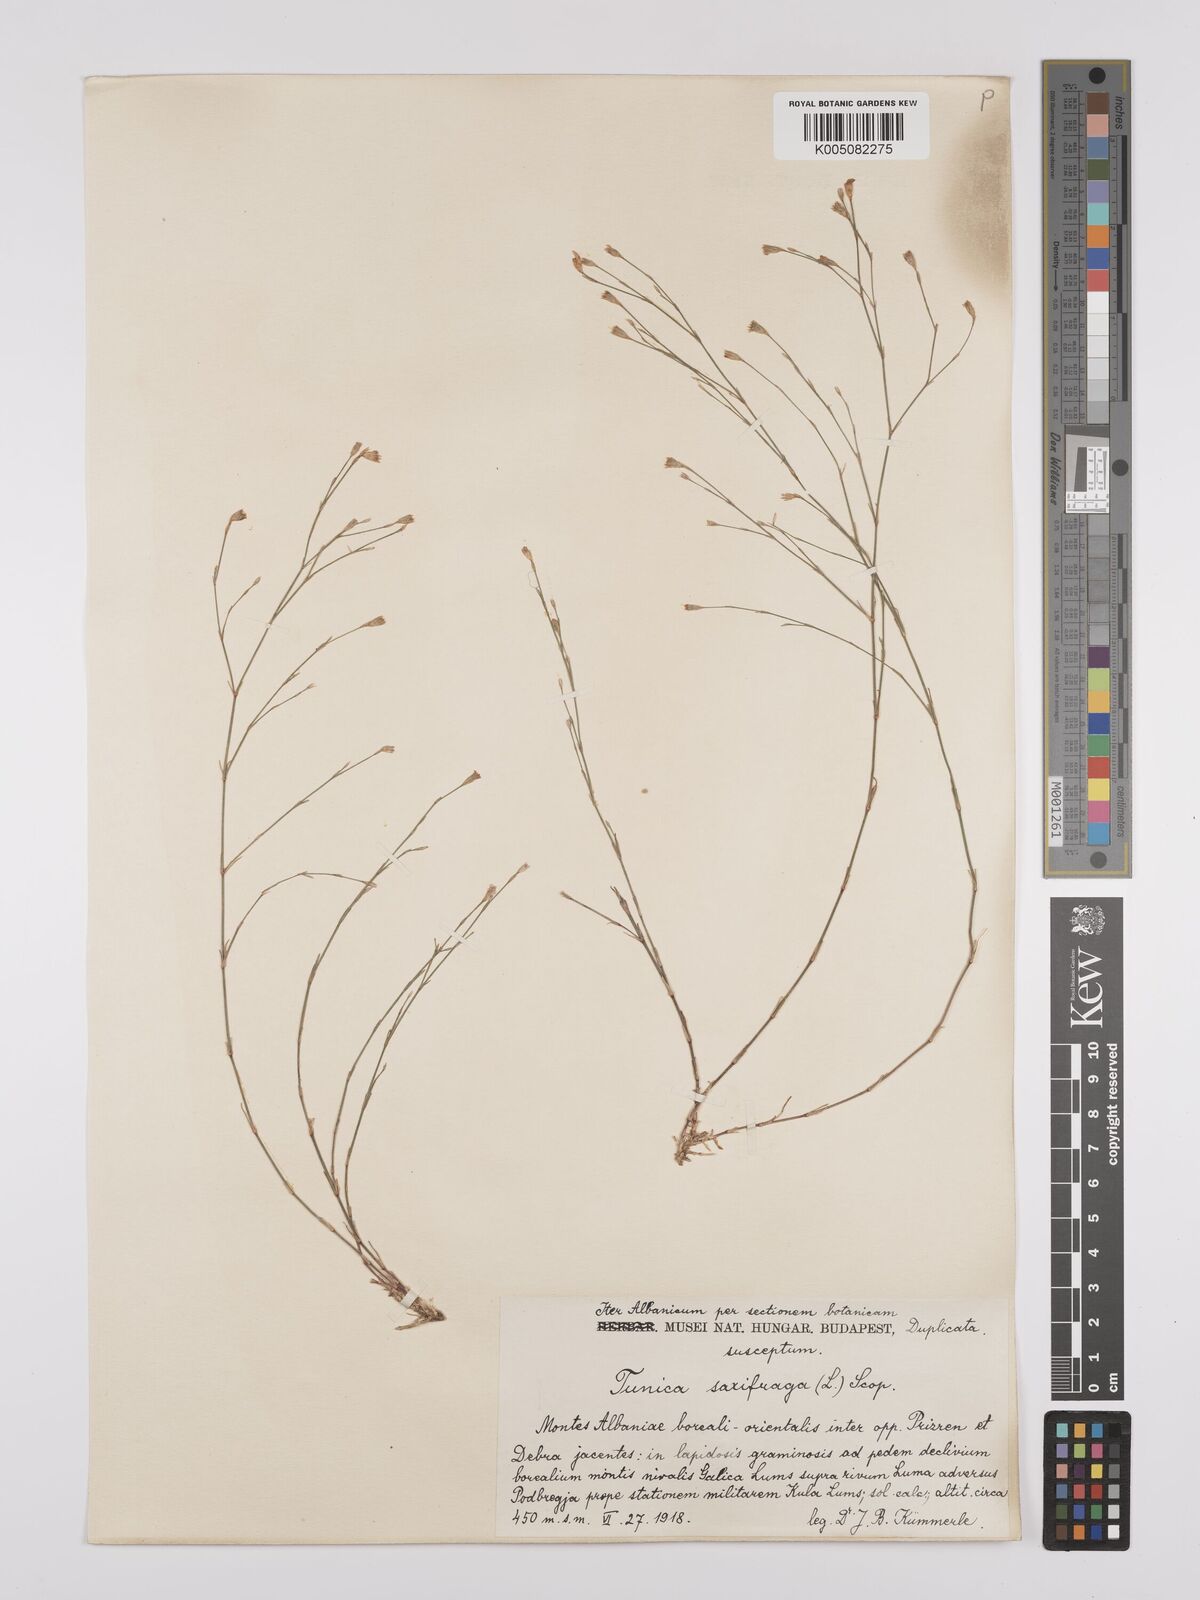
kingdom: Plantae
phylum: Tracheophyta
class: Magnoliopsida
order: Caryophyllales
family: Caryophyllaceae
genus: Petrorhagia
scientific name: Petrorhagia saxifraga
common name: Tunicflower
